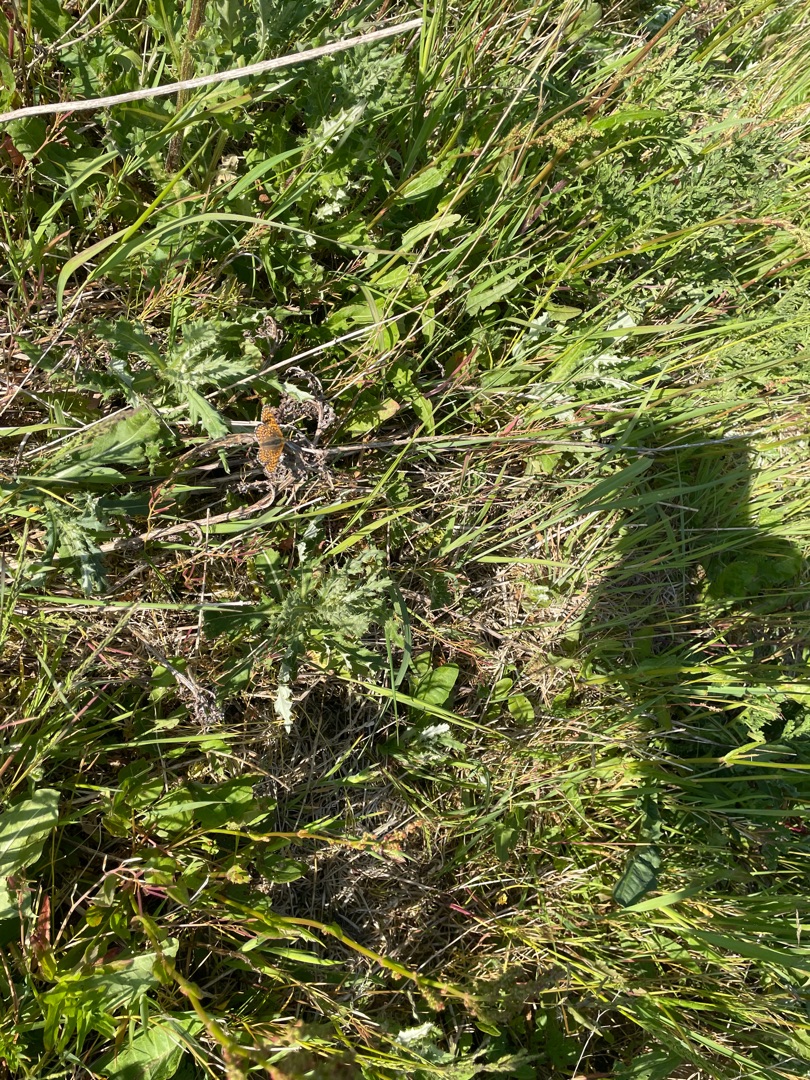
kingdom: Animalia
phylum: Arthropoda
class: Insecta
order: Lepidoptera
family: Nymphalidae
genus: Melitaea
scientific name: Melitaea cinxia
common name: Okkergul pletvinge
